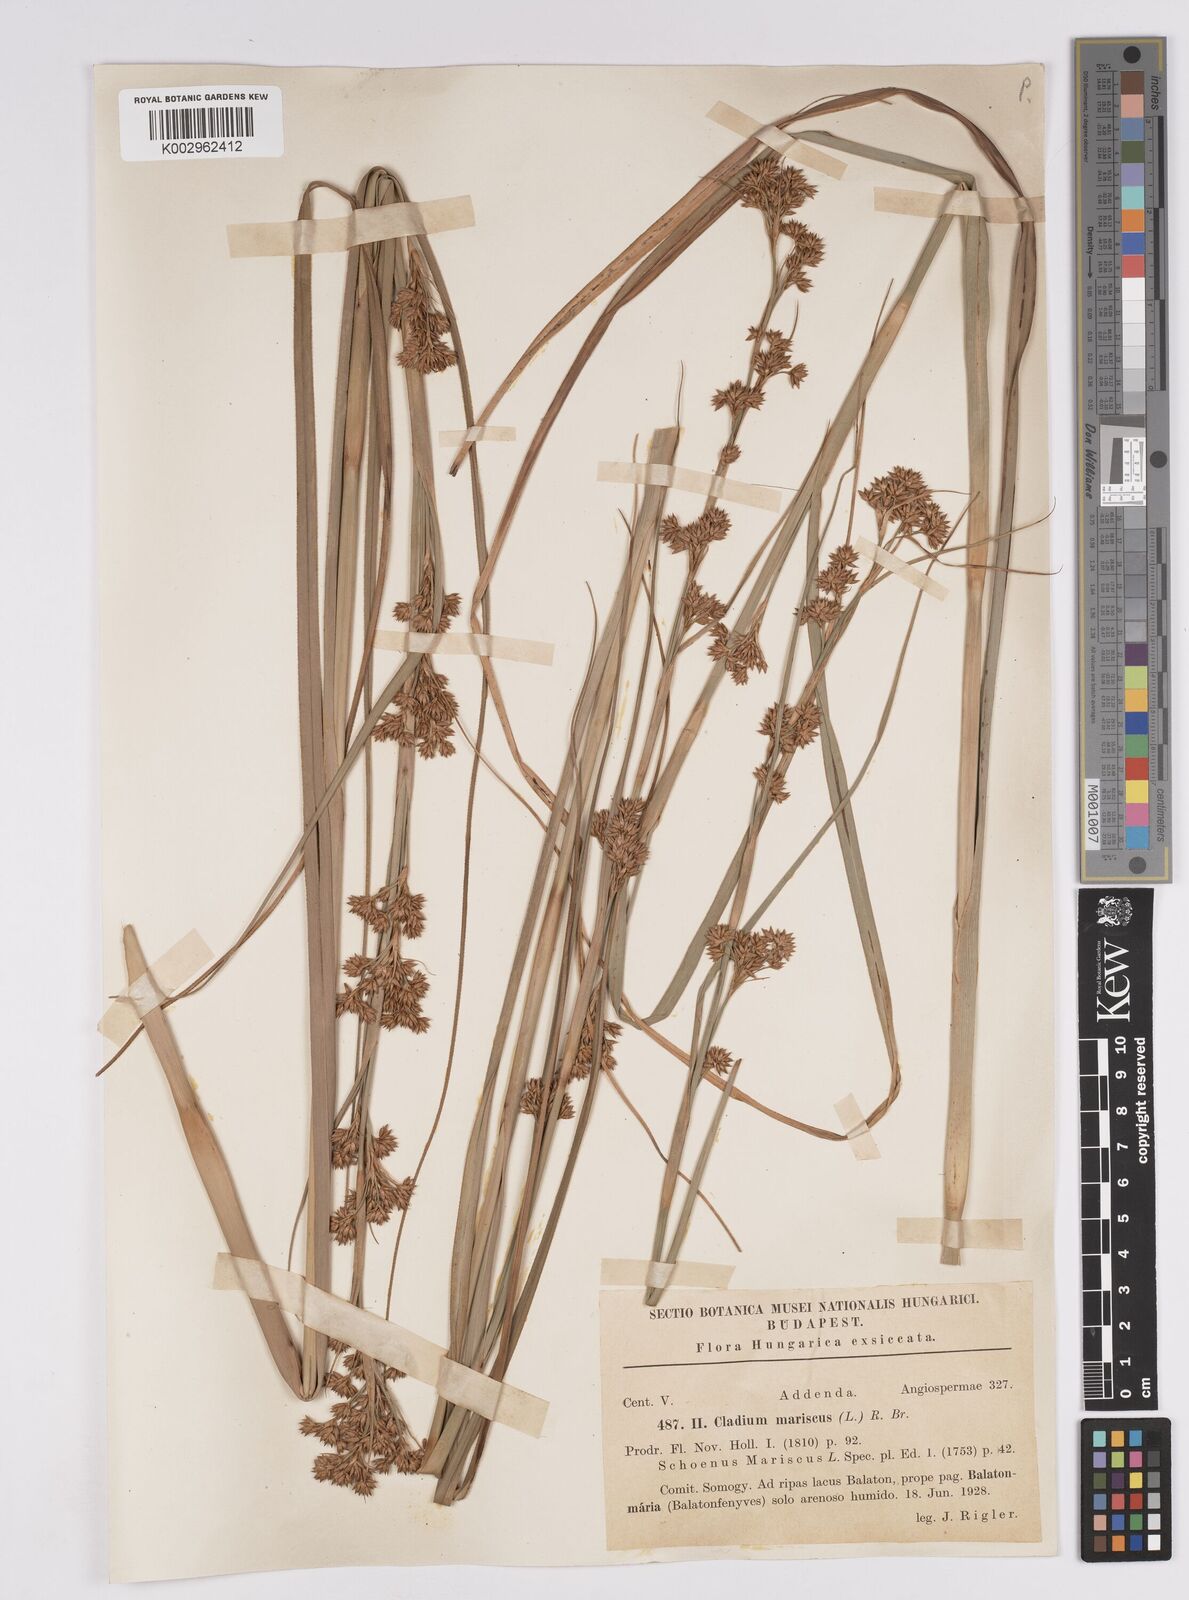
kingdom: Plantae
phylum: Tracheophyta
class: Liliopsida
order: Poales
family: Cyperaceae
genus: Cladium
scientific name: Cladium mariscus
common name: Great fen-sedge
